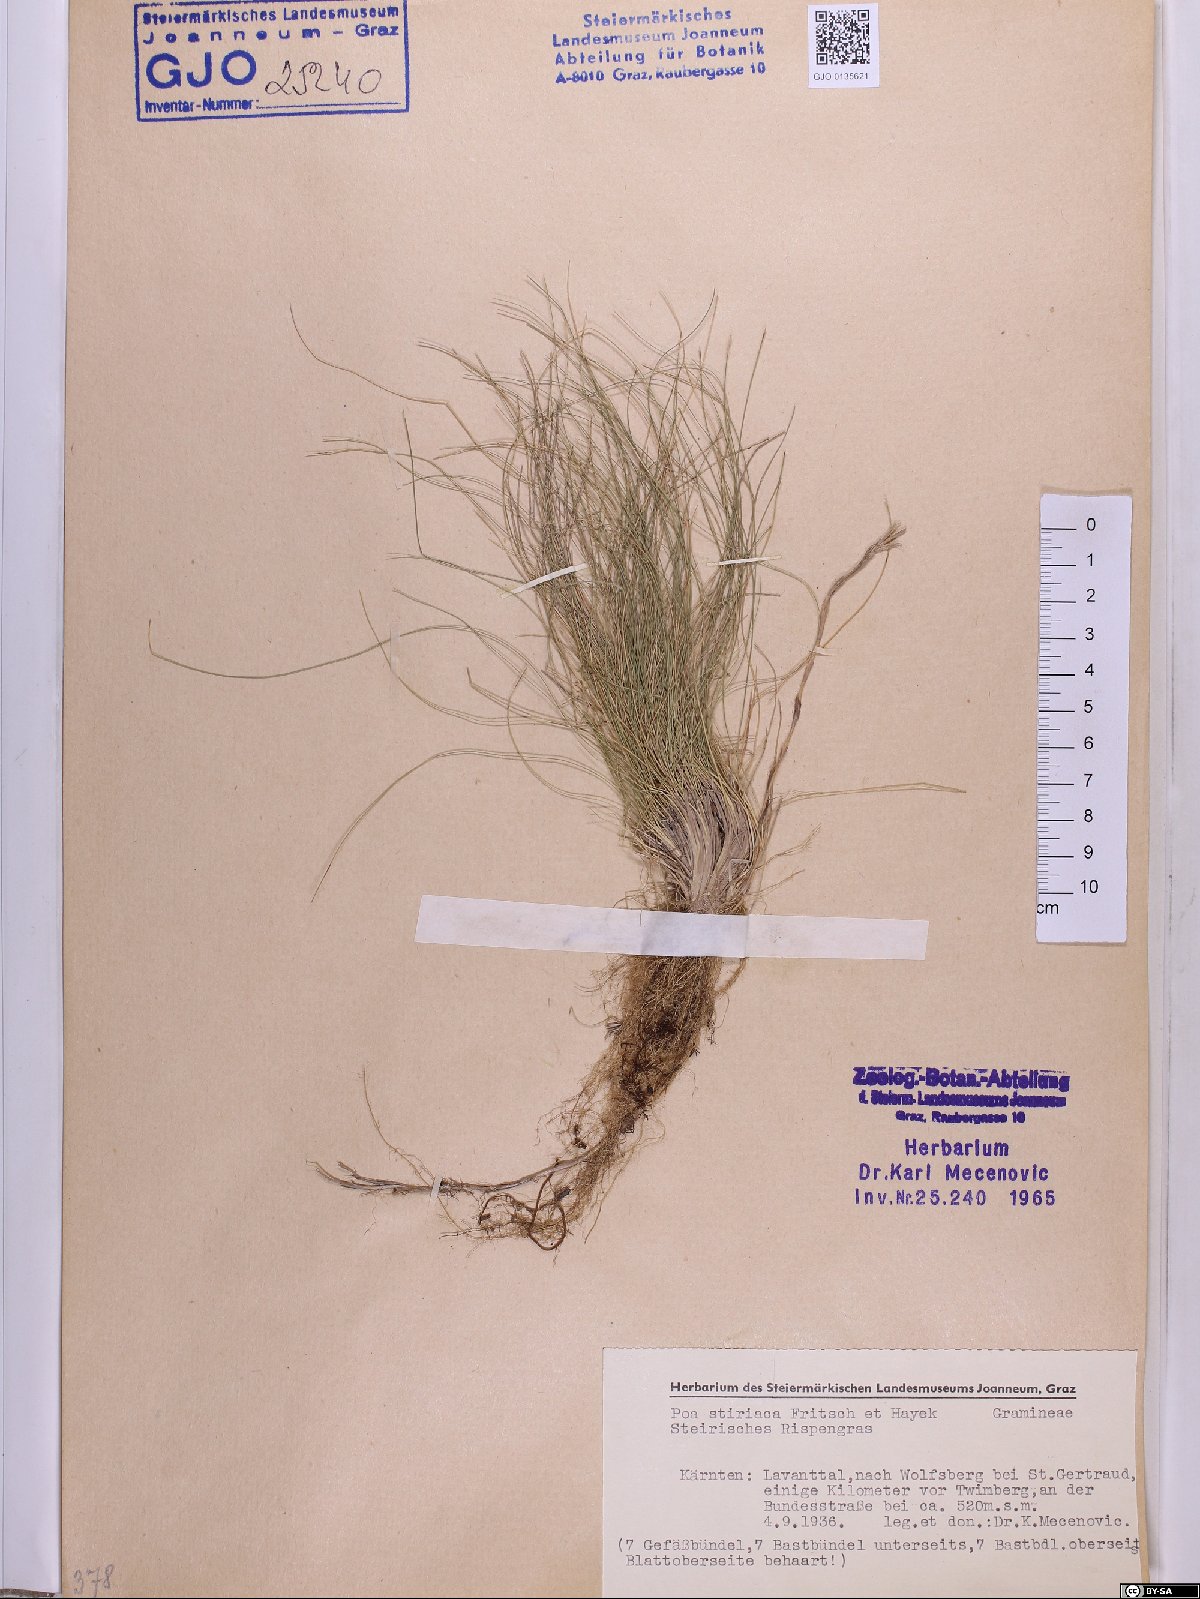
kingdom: Plantae
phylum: Tracheophyta
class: Liliopsida
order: Poales
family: Poaceae
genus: Poa
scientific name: Poa stiriaca
